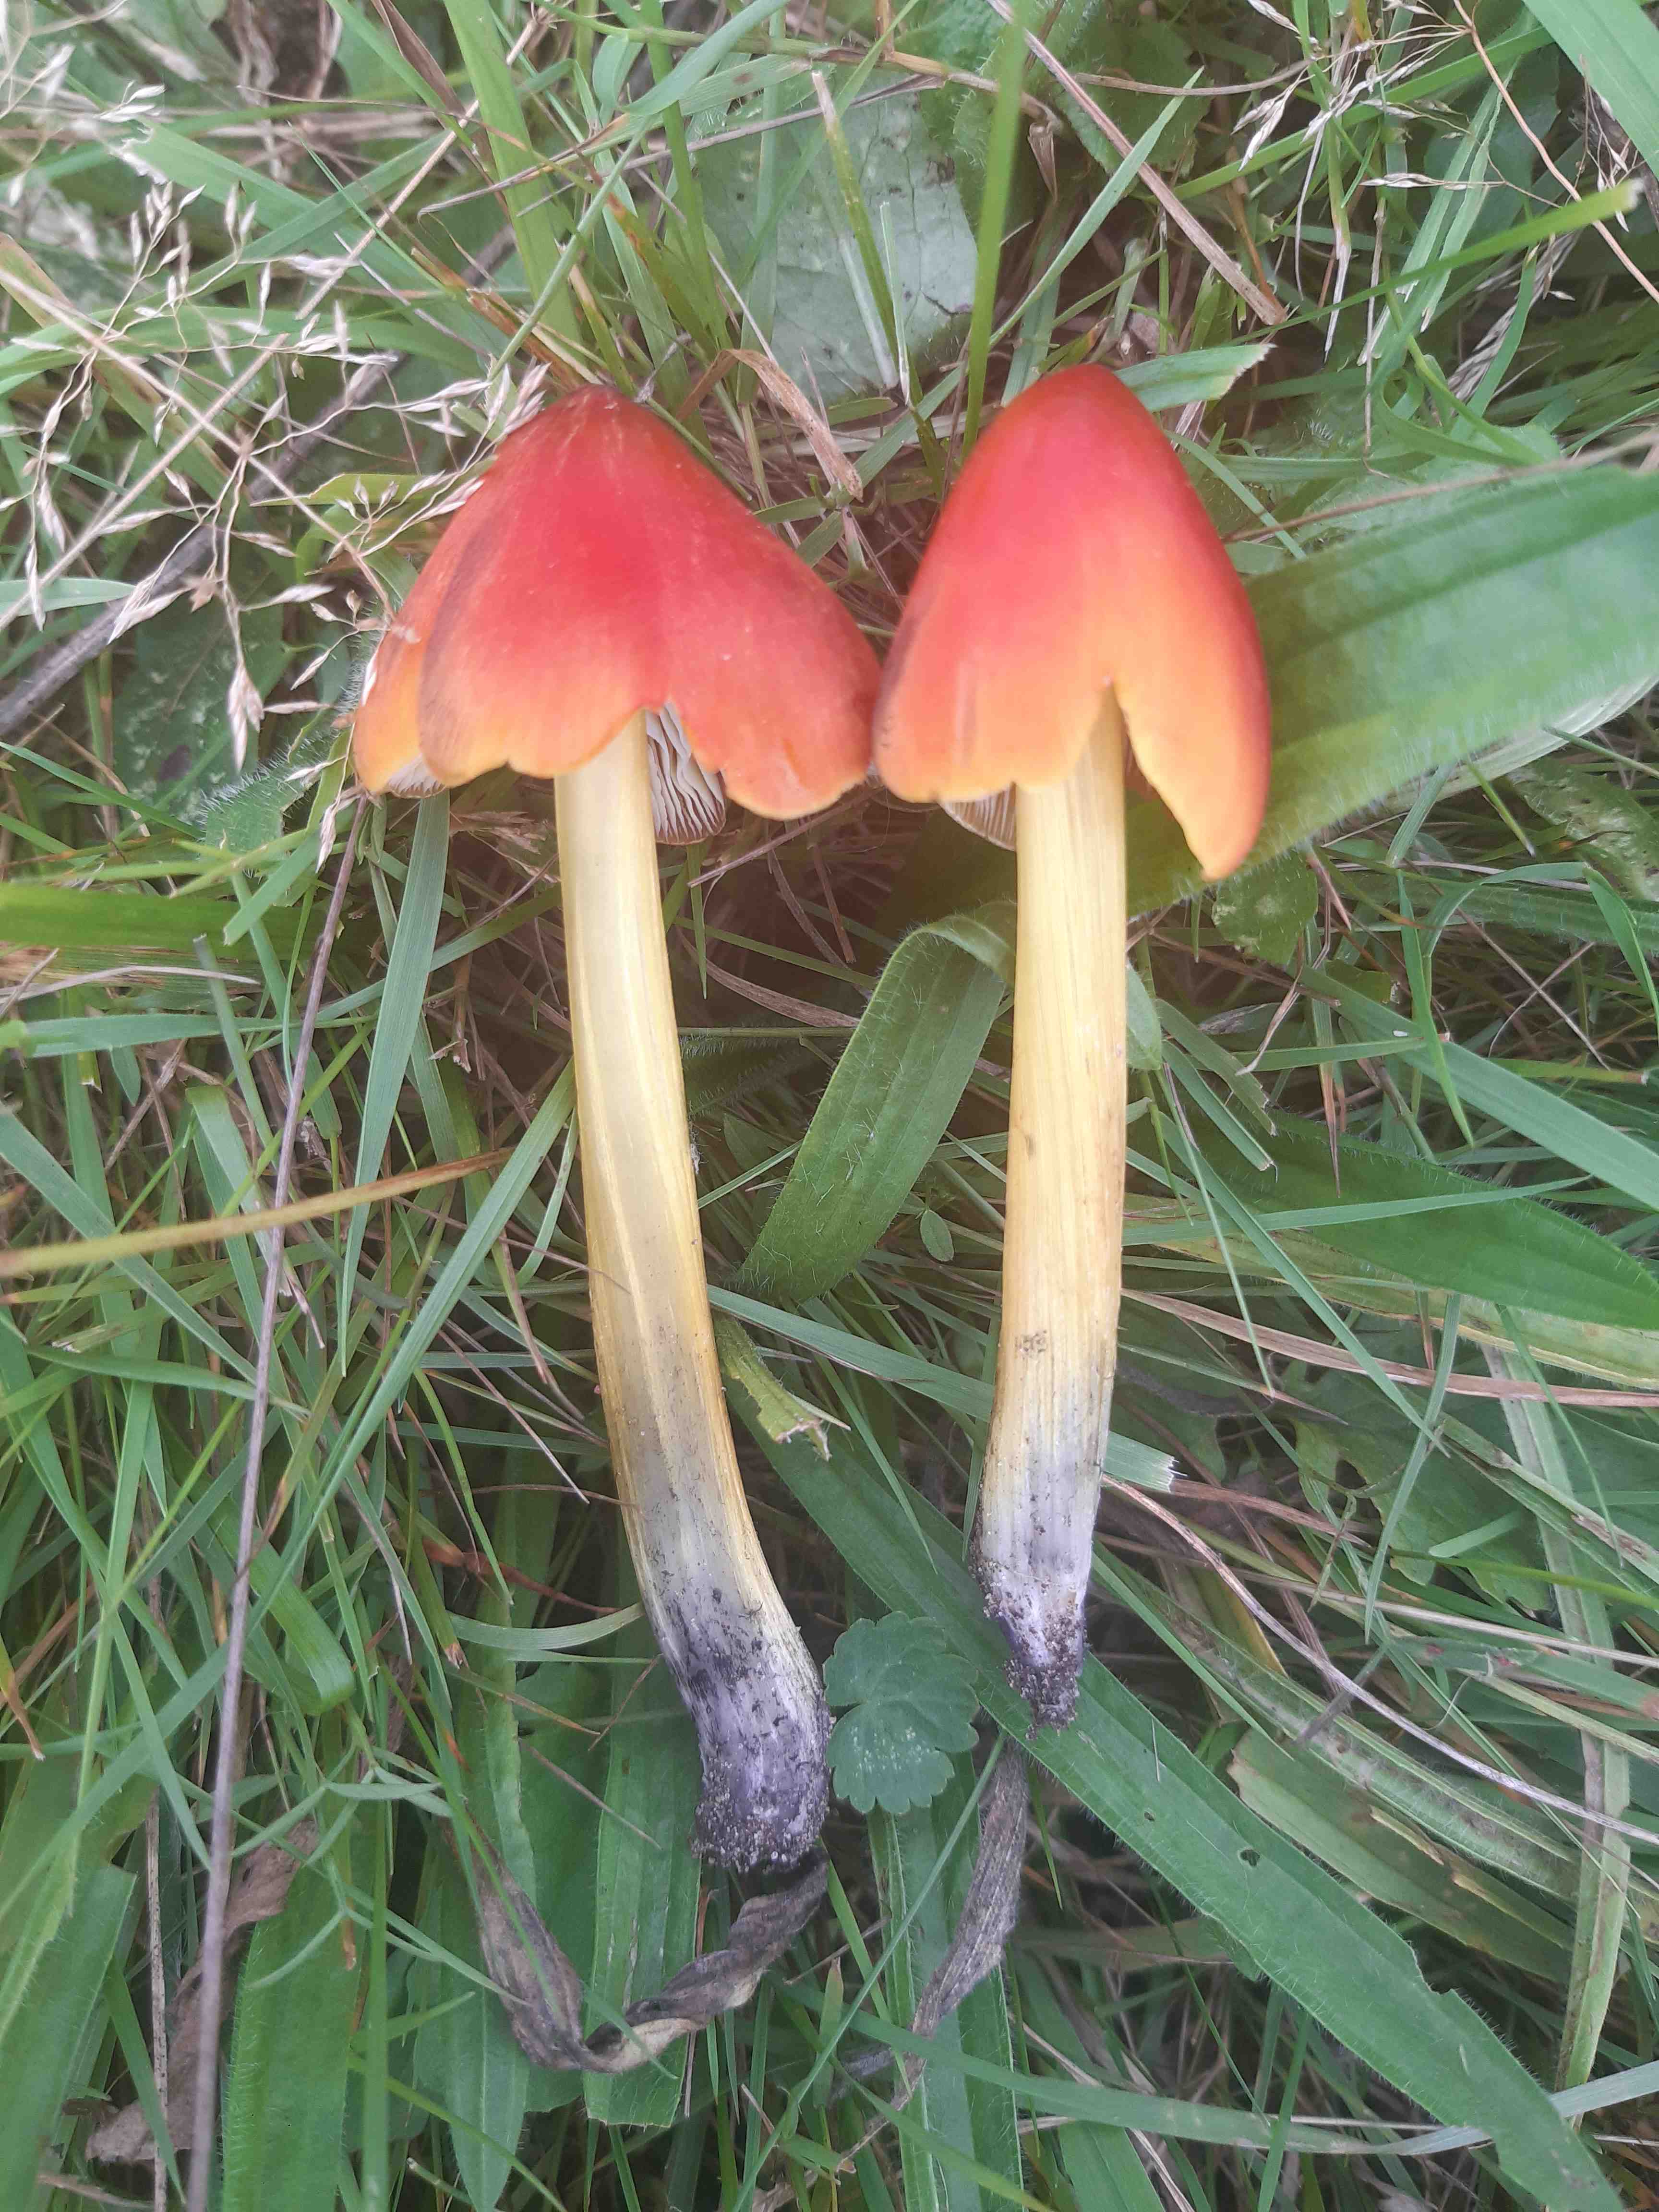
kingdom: Fungi
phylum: Basidiomycota
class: Agaricomycetes
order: Agaricales
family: Hygrophoraceae
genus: Hygrocybe
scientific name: Hygrocybe conica
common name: kegle-vokshat
